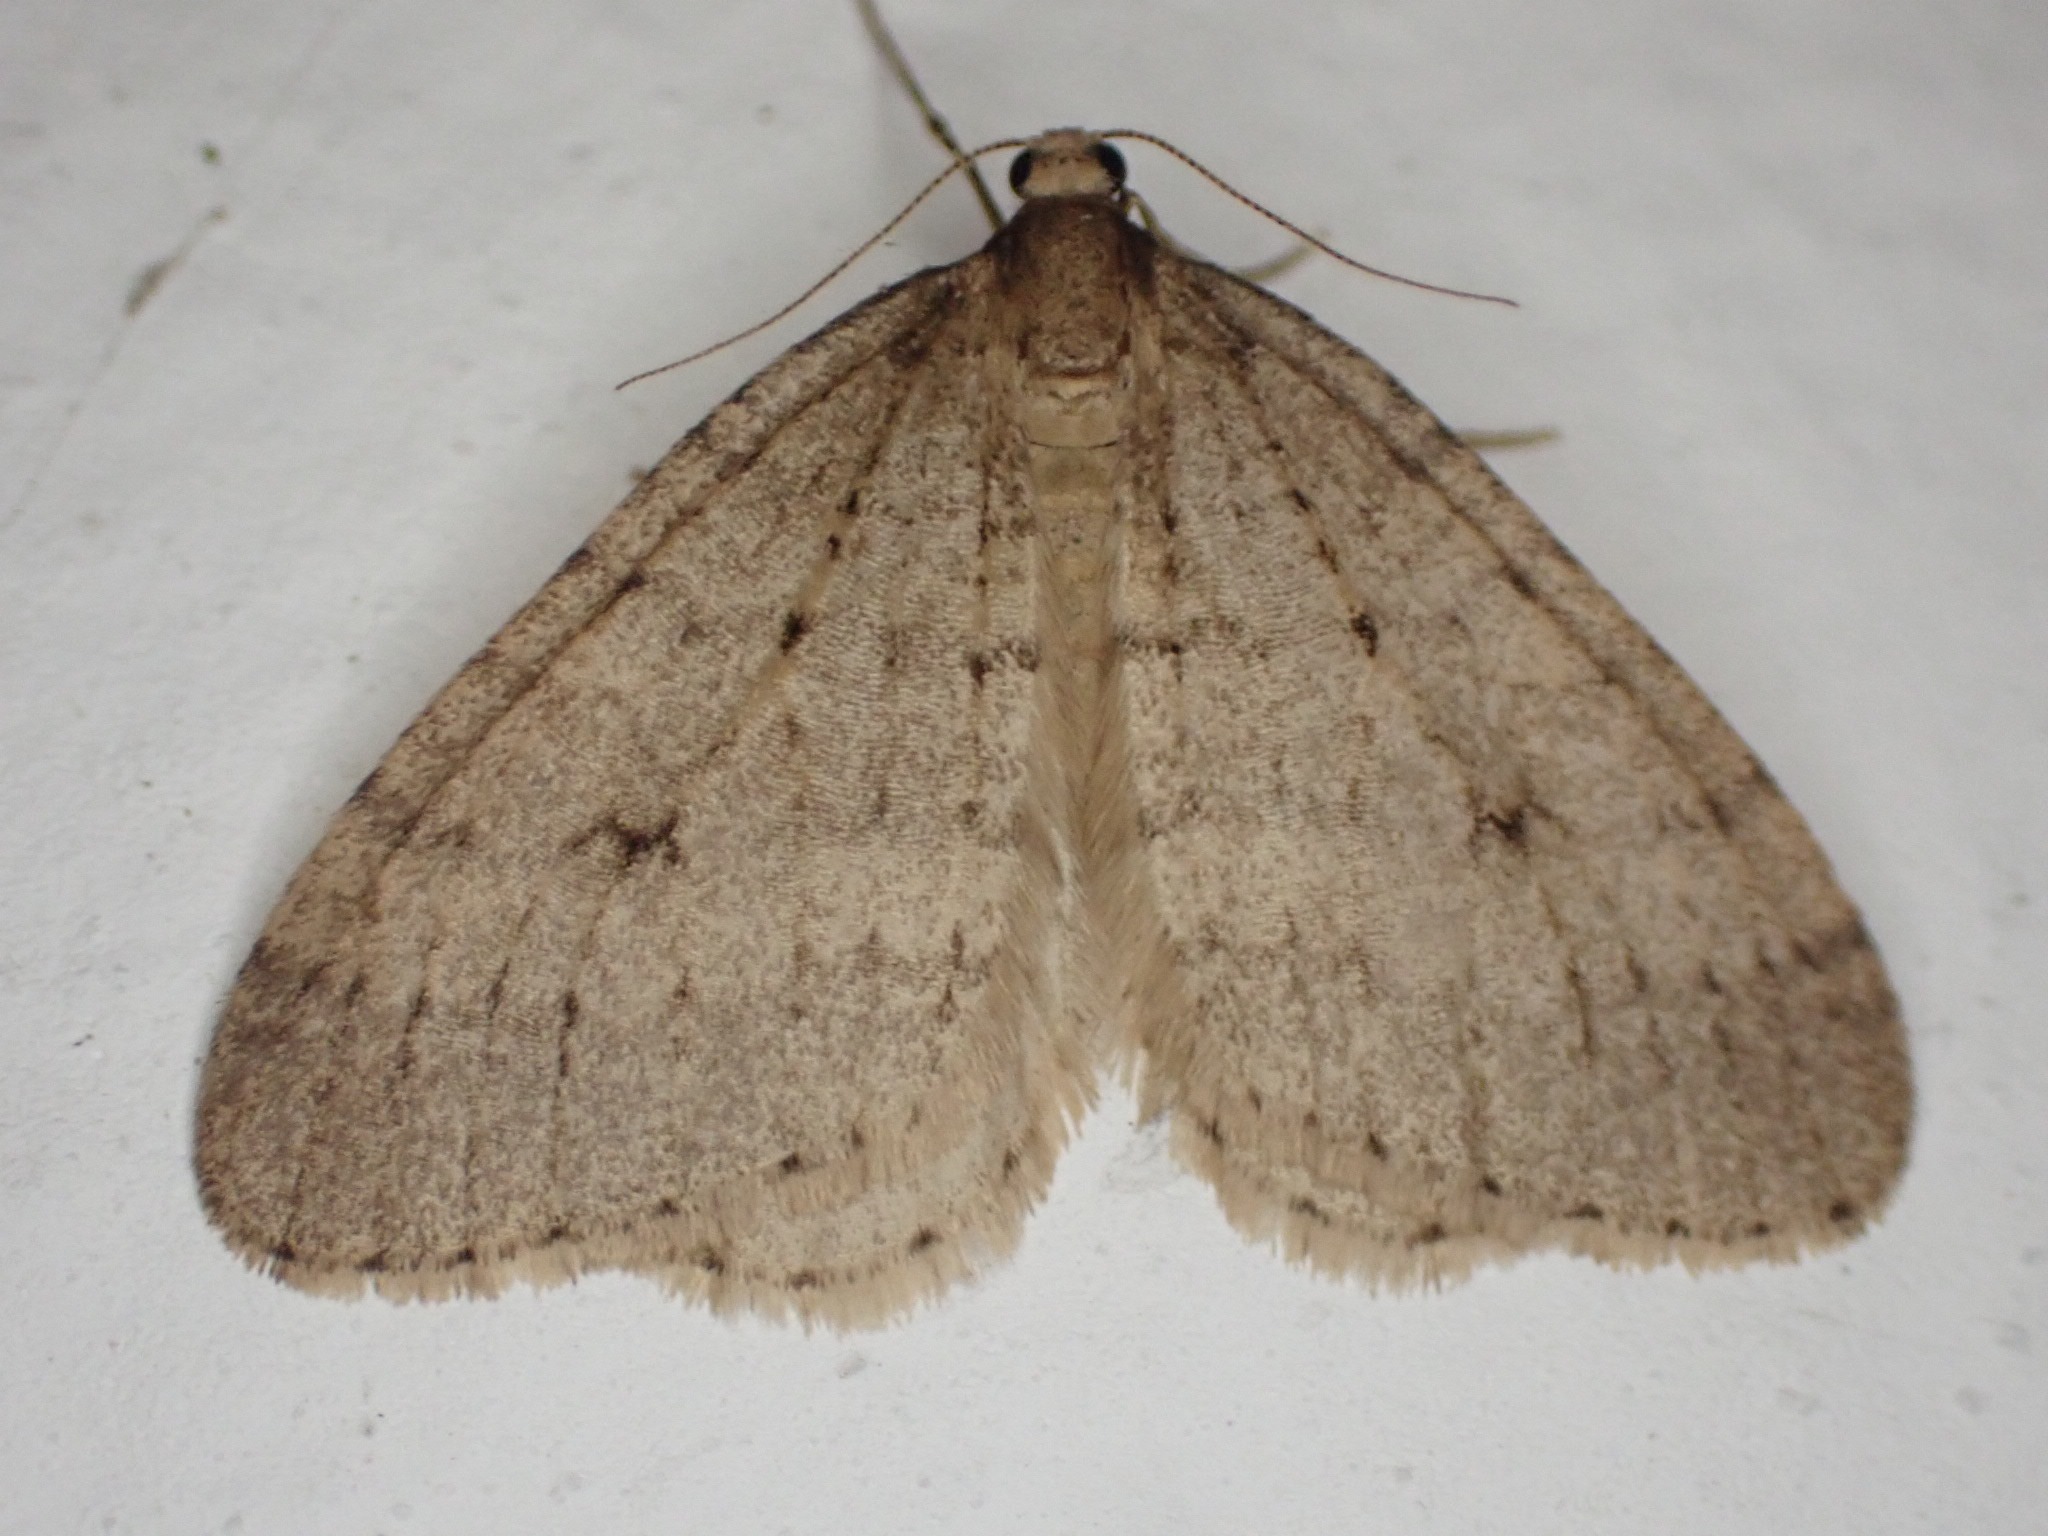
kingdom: Animalia
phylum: Arthropoda
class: Insecta
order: Lepidoptera
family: Geometridae
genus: Operophtera
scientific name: Operophtera brumata
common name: Lille frostmåler
